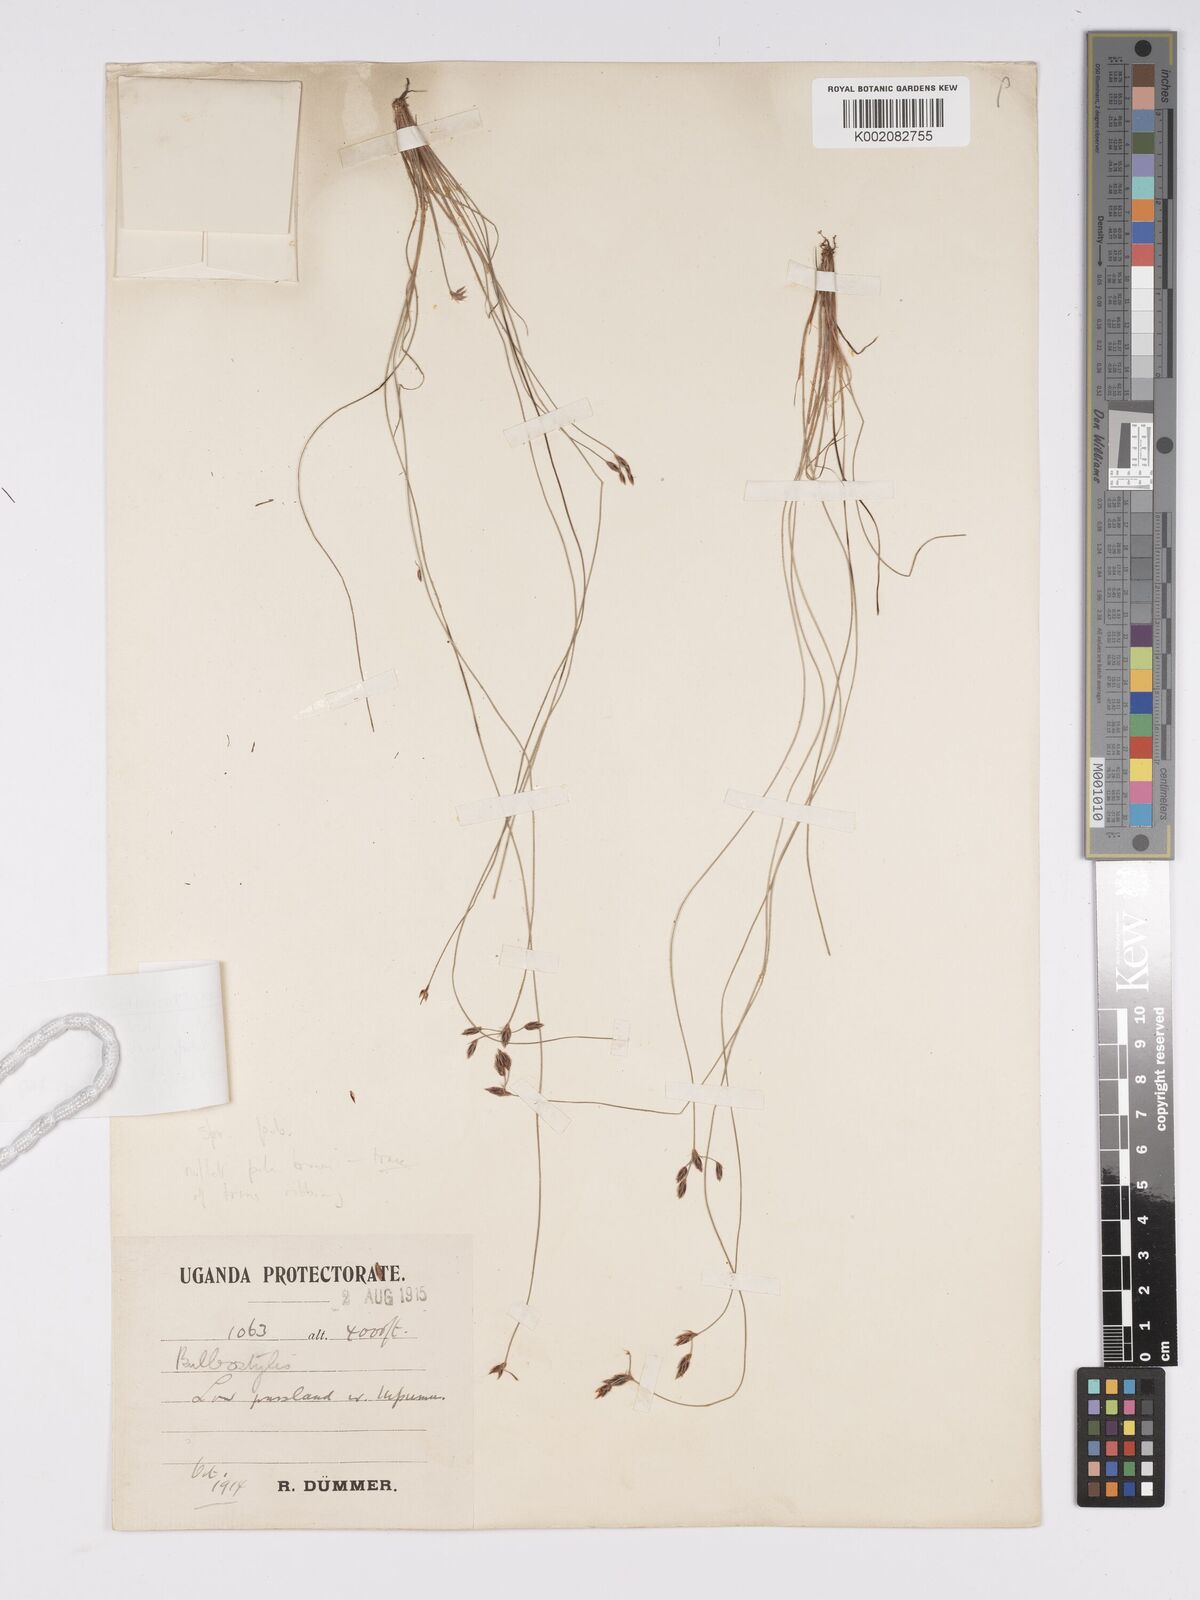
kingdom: Plantae
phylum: Tracheophyta
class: Liliopsida
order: Poales
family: Cyperaceae
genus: Bulbostylis
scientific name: Bulbostylis hispidula
